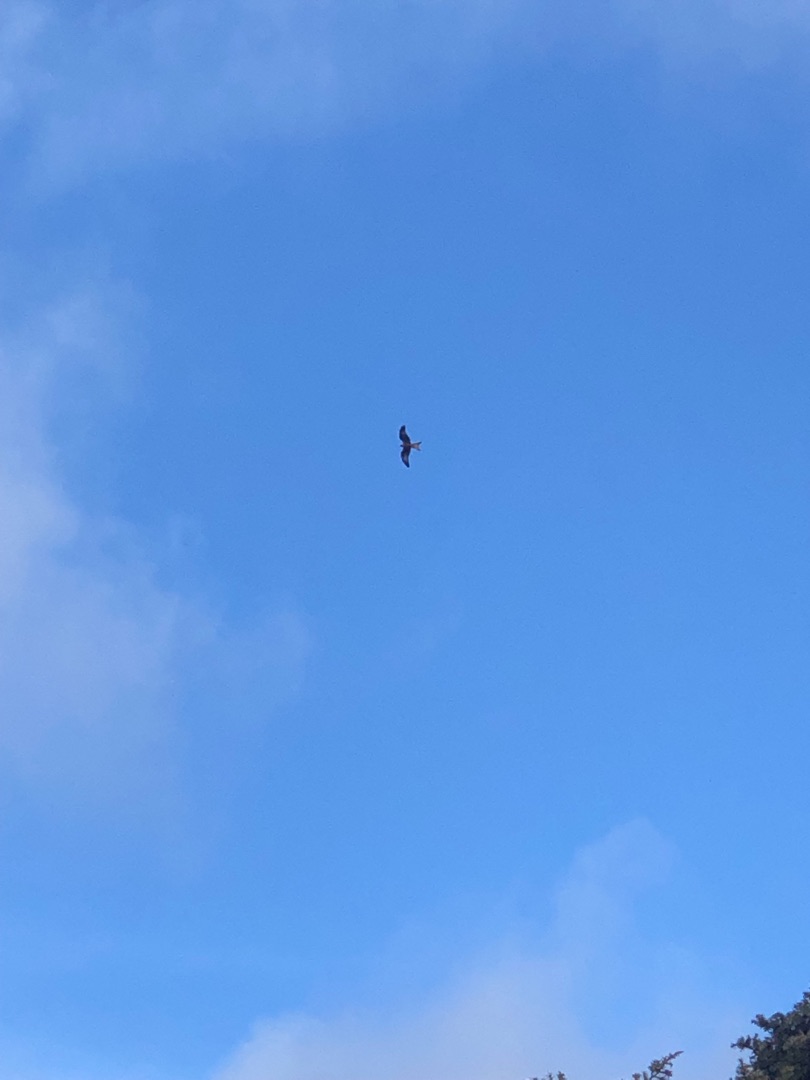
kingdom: Animalia
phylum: Chordata
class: Aves
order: Accipitriformes
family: Accipitridae
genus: Milvus
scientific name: Milvus milvus
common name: Rød glente
